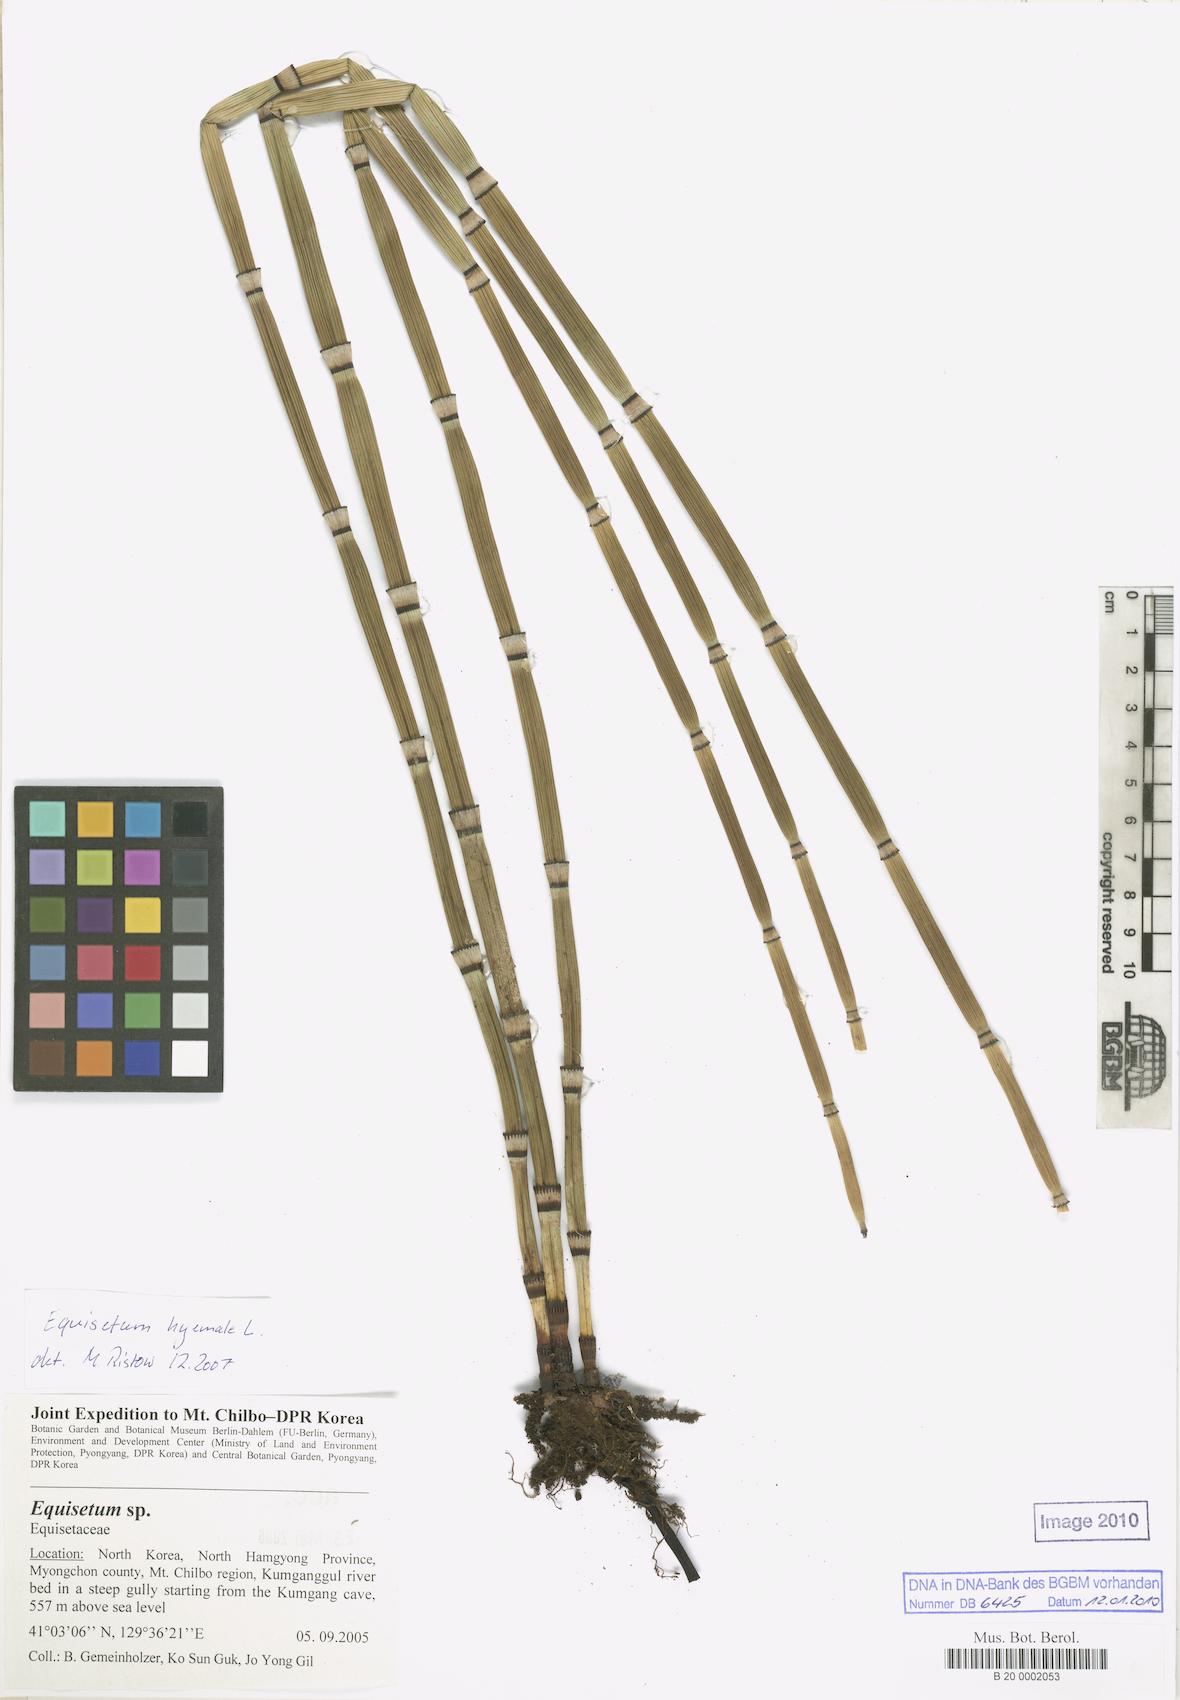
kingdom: Plantae
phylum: Tracheophyta
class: Polypodiopsida
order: Equisetales
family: Equisetaceae
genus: Equisetum
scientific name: Equisetum hyemale
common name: Rough horsetail
